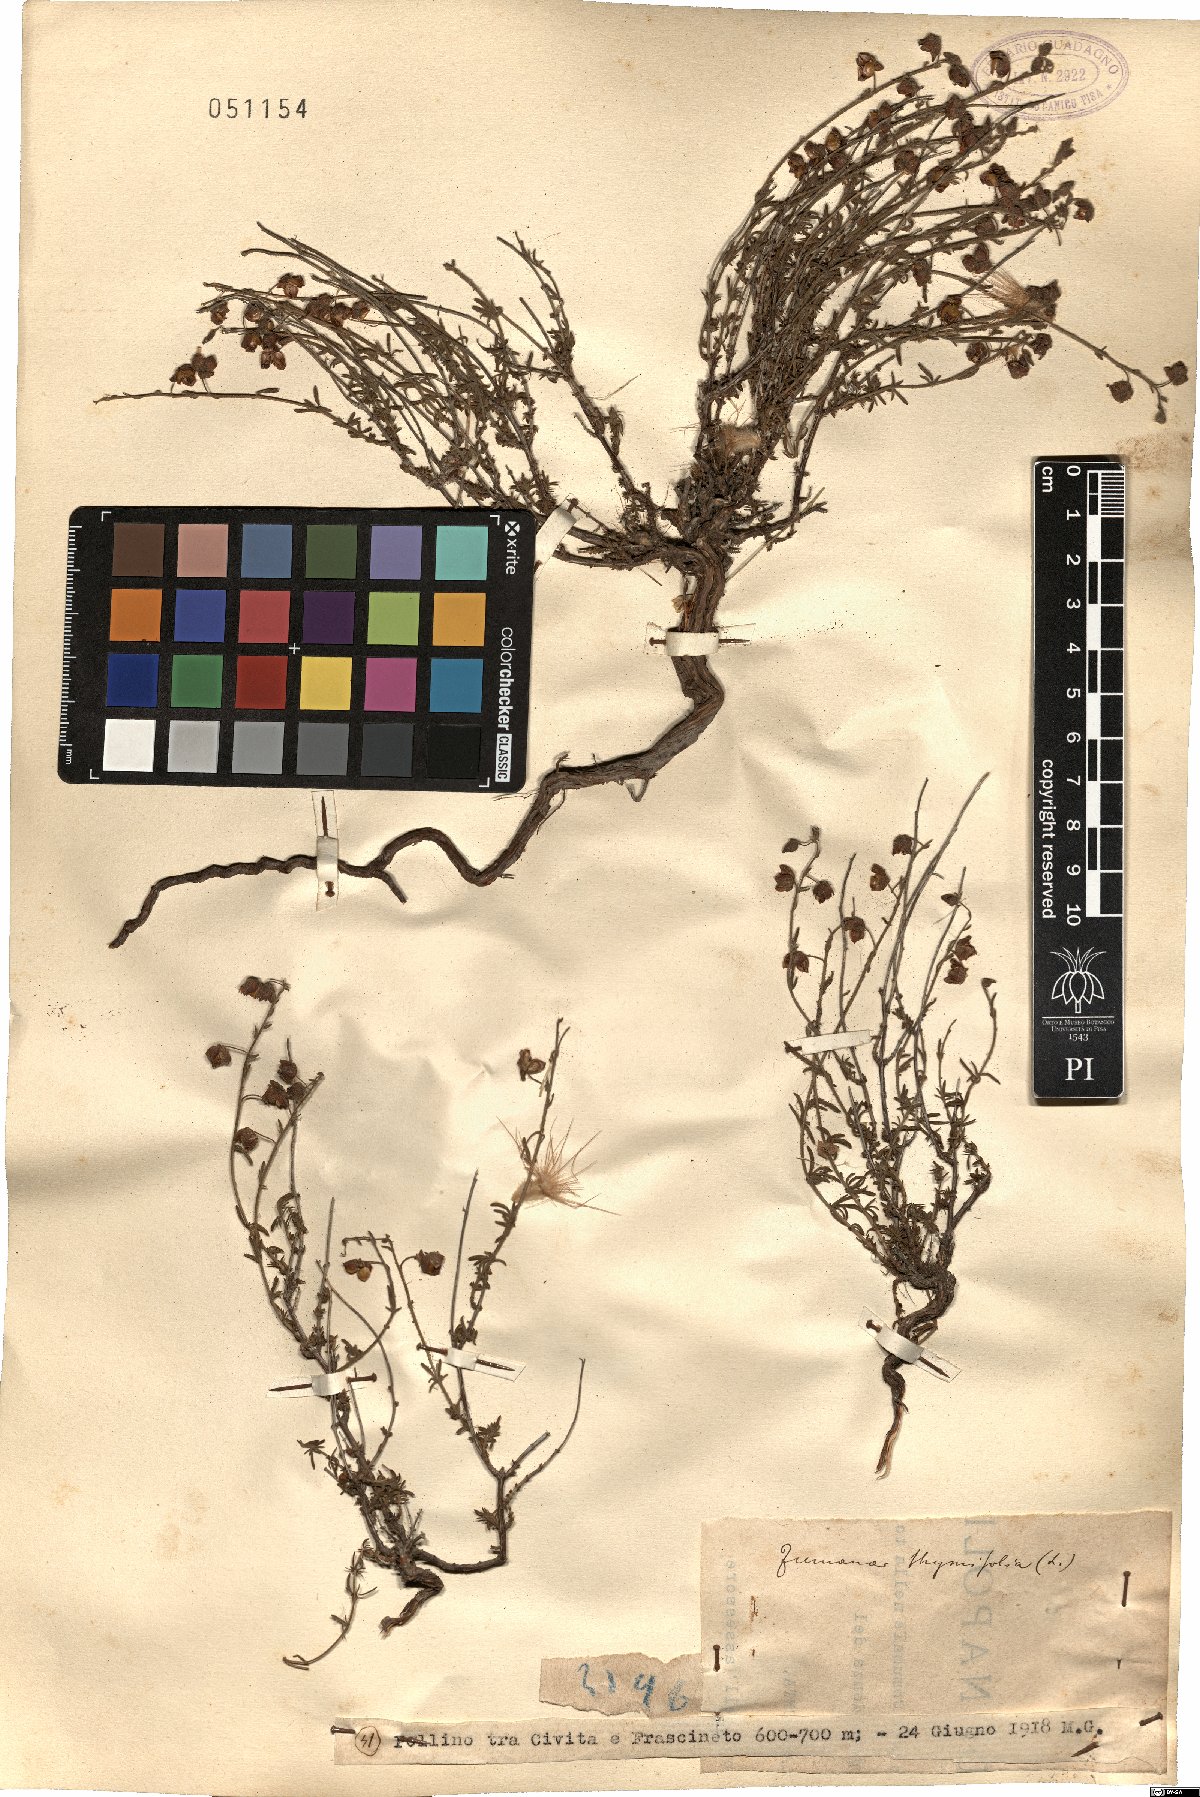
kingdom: Plantae
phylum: Tracheophyta
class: Magnoliopsida
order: Malvales
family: Cistaceae
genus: Fumana
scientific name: Fumana thymifolia
